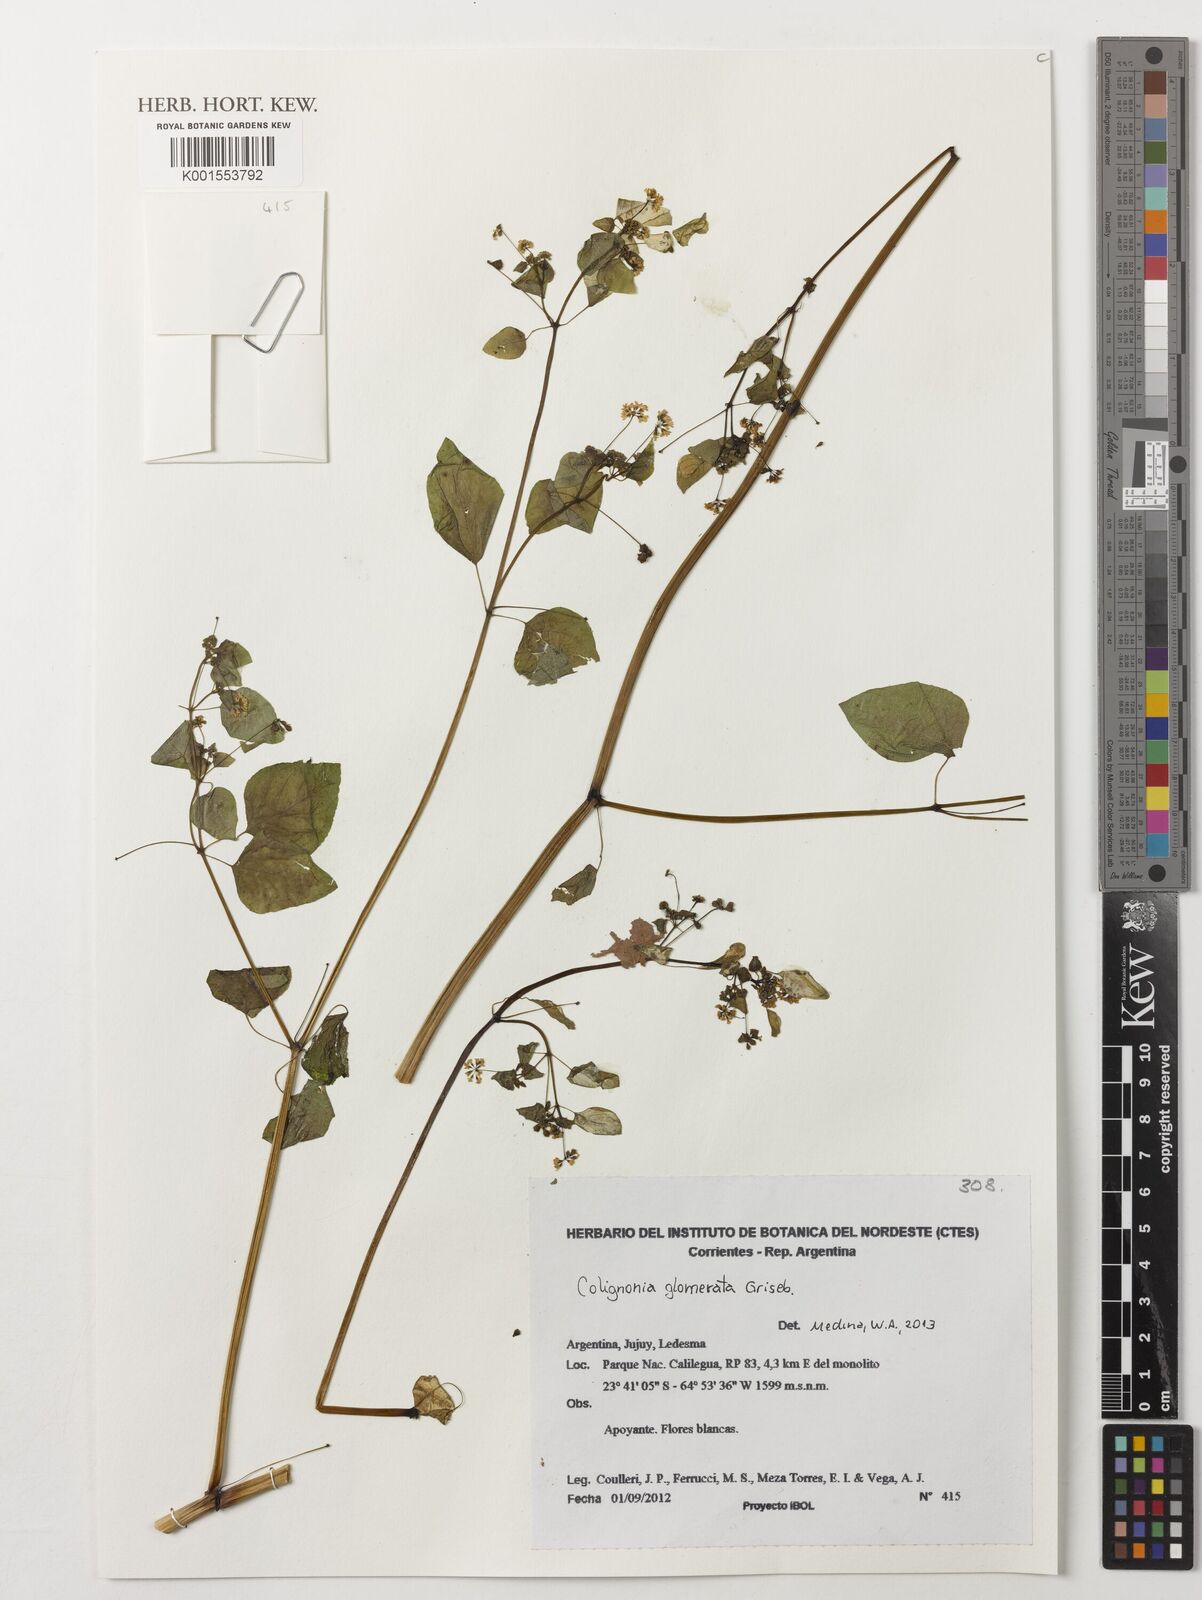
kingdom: Plantae
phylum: Tracheophyta
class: Magnoliopsida
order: Caryophyllales
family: Nyctaginaceae
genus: Colignonia
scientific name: Colignonia glomerata
